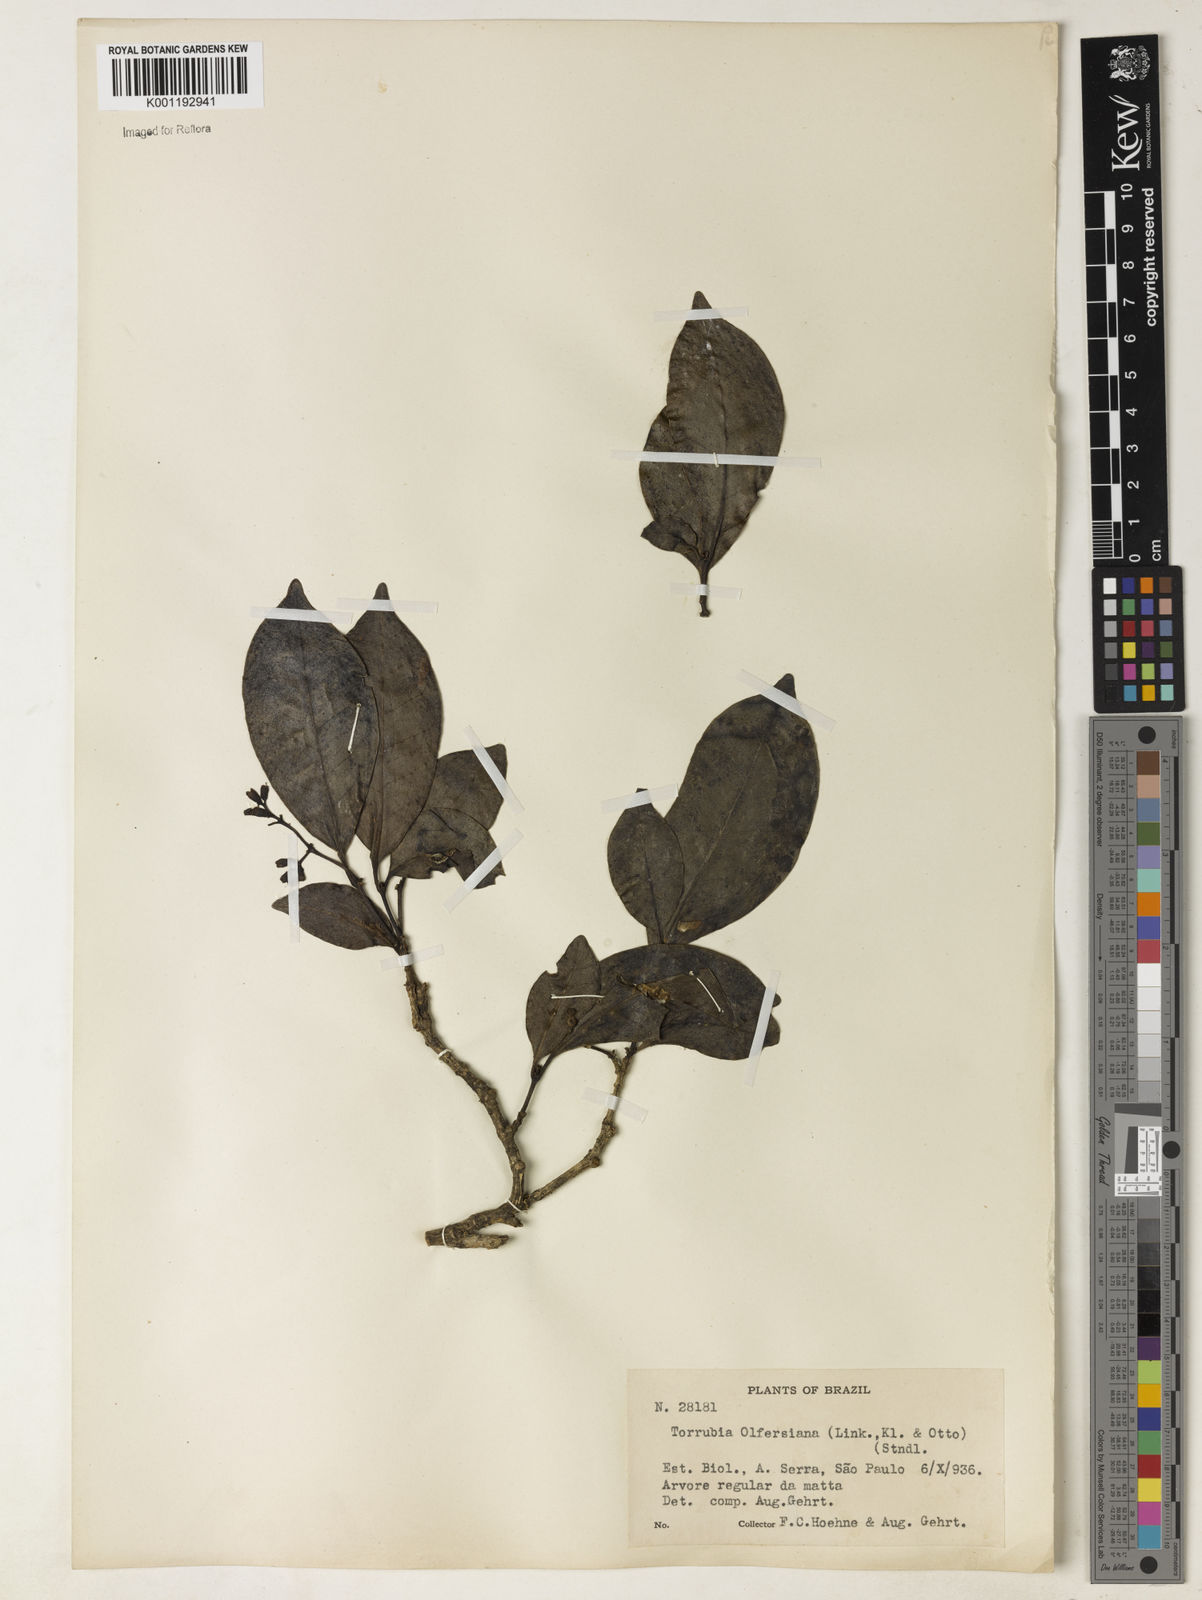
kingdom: Plantae
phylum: Tracheophyta
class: Magnoliopsida
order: Caryophyllales
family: Nyctaginaceae
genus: Guapira
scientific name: Guapira
